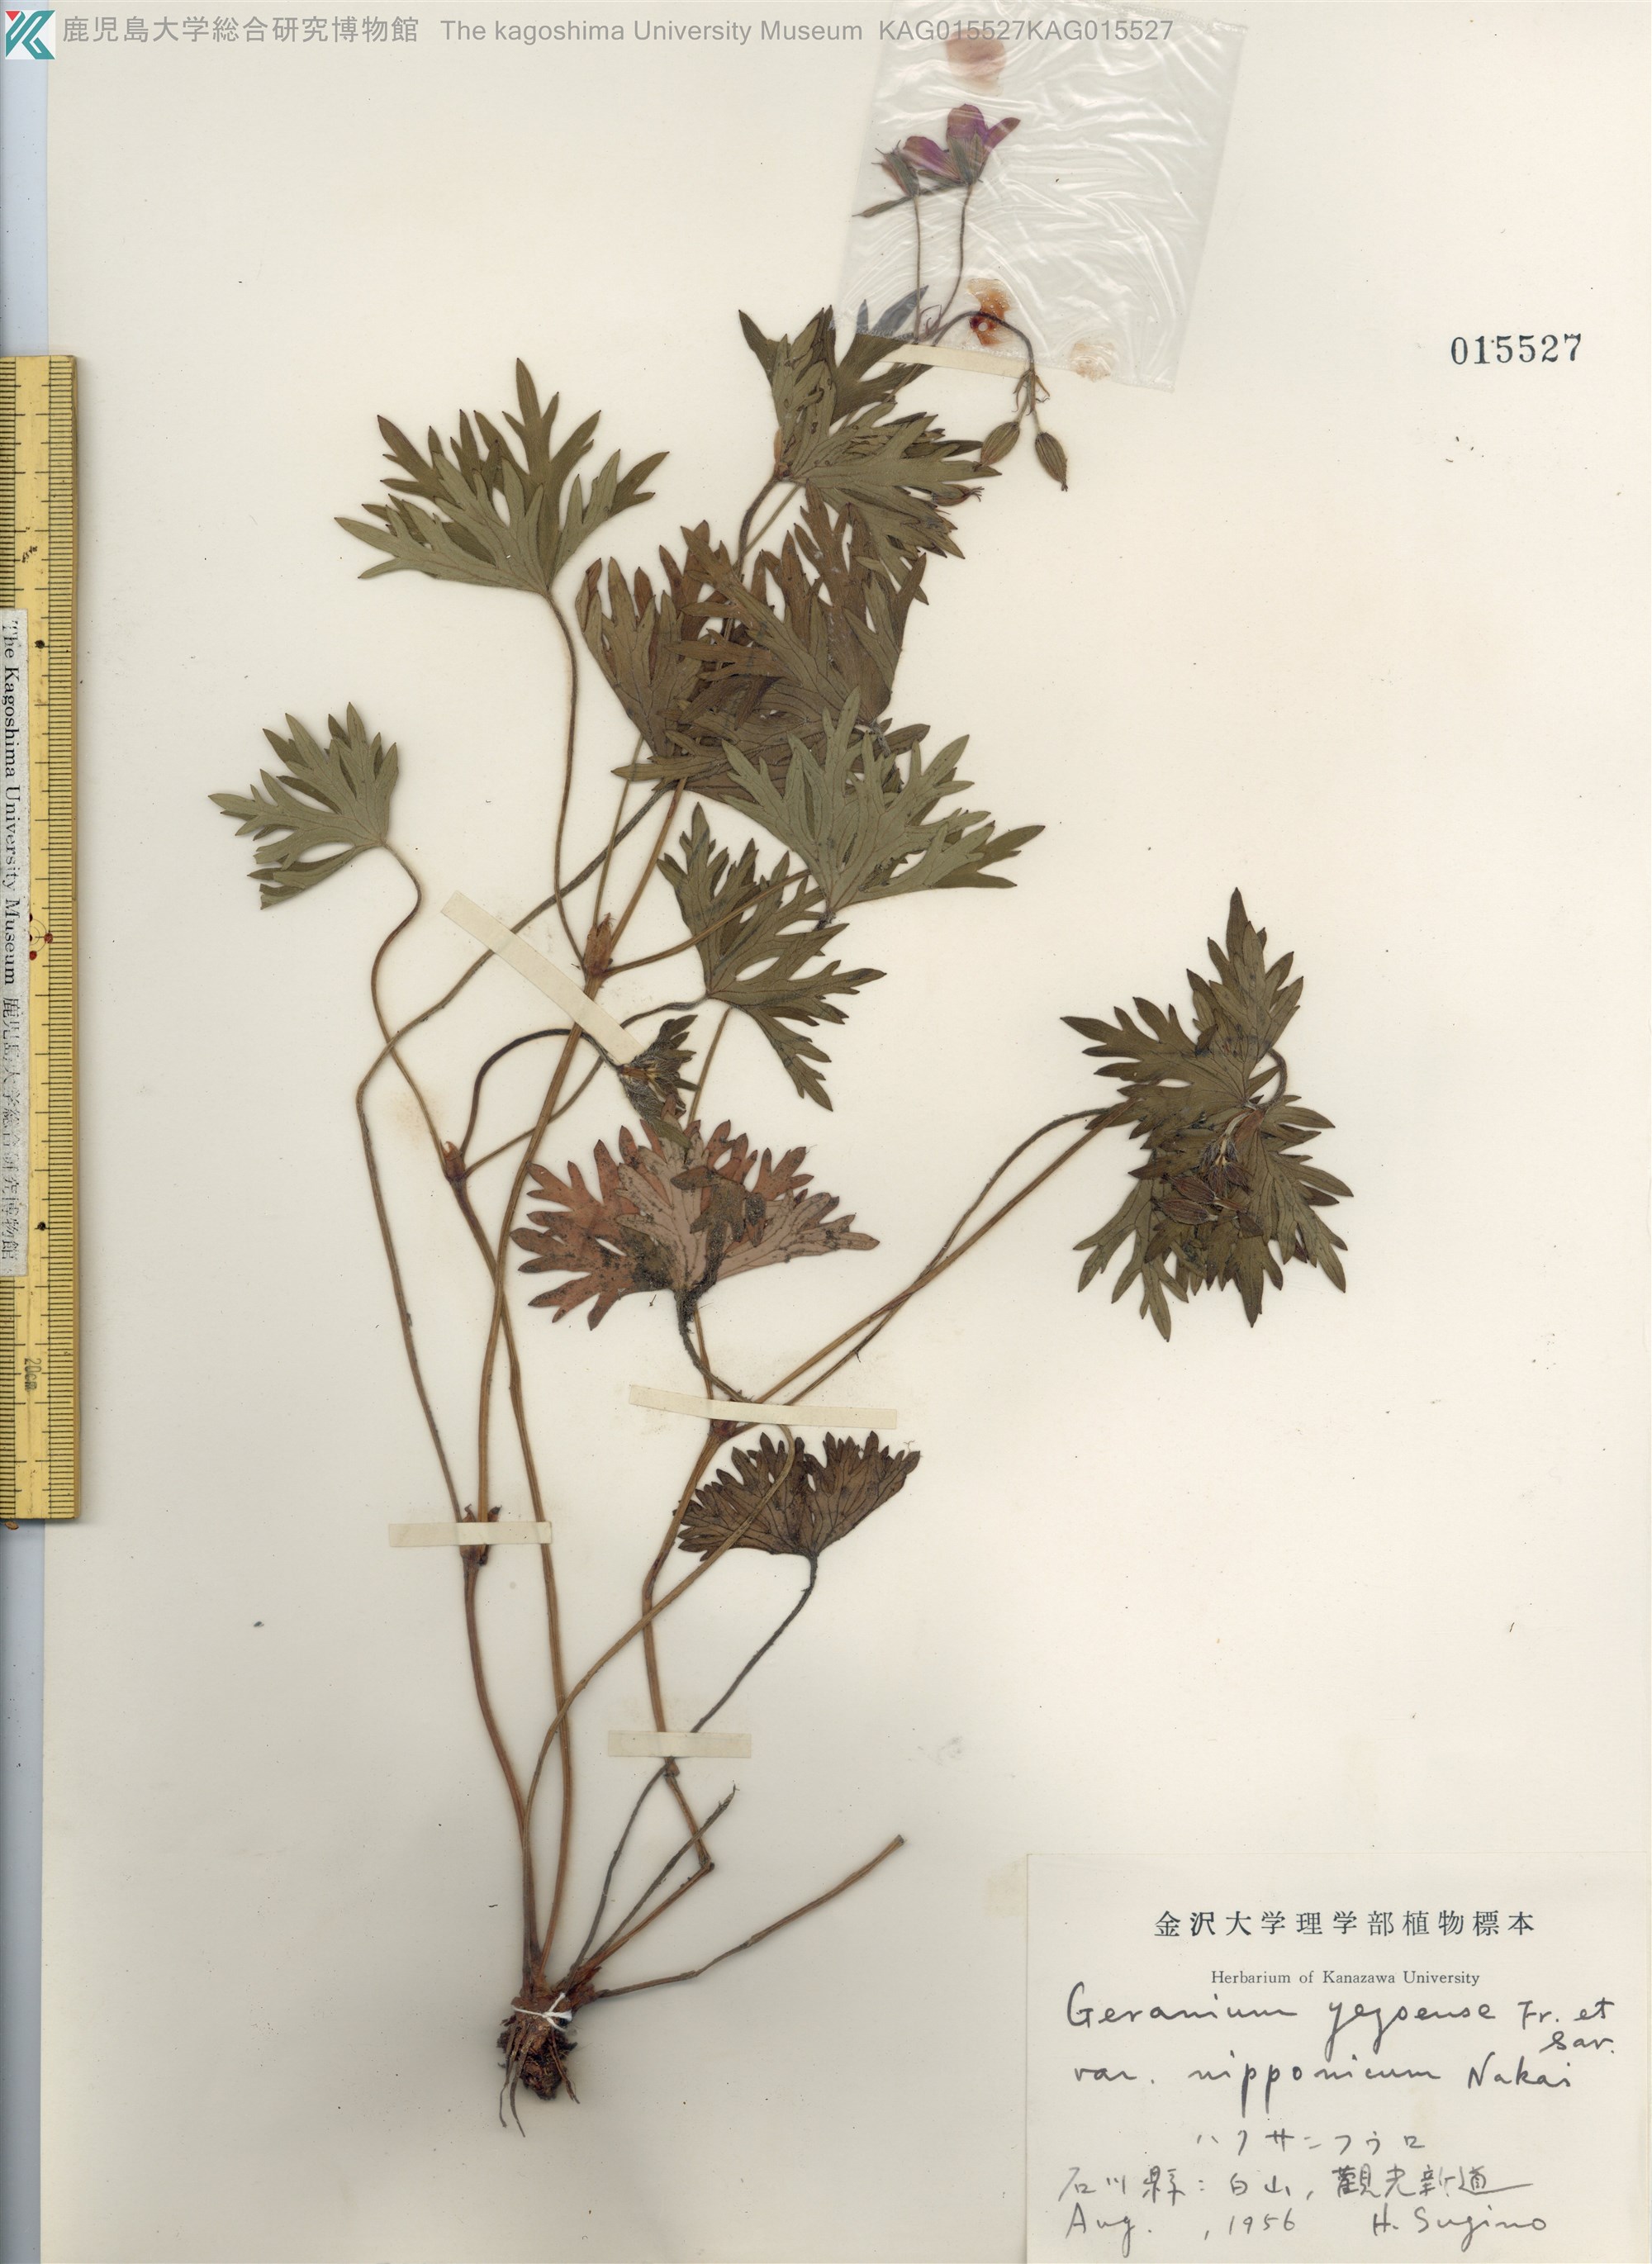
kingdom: Plantae
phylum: Tracheophyta
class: Magnoliopsida
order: Geraniales
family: Geraniaceae
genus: Geranium
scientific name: Geranium yesoense
